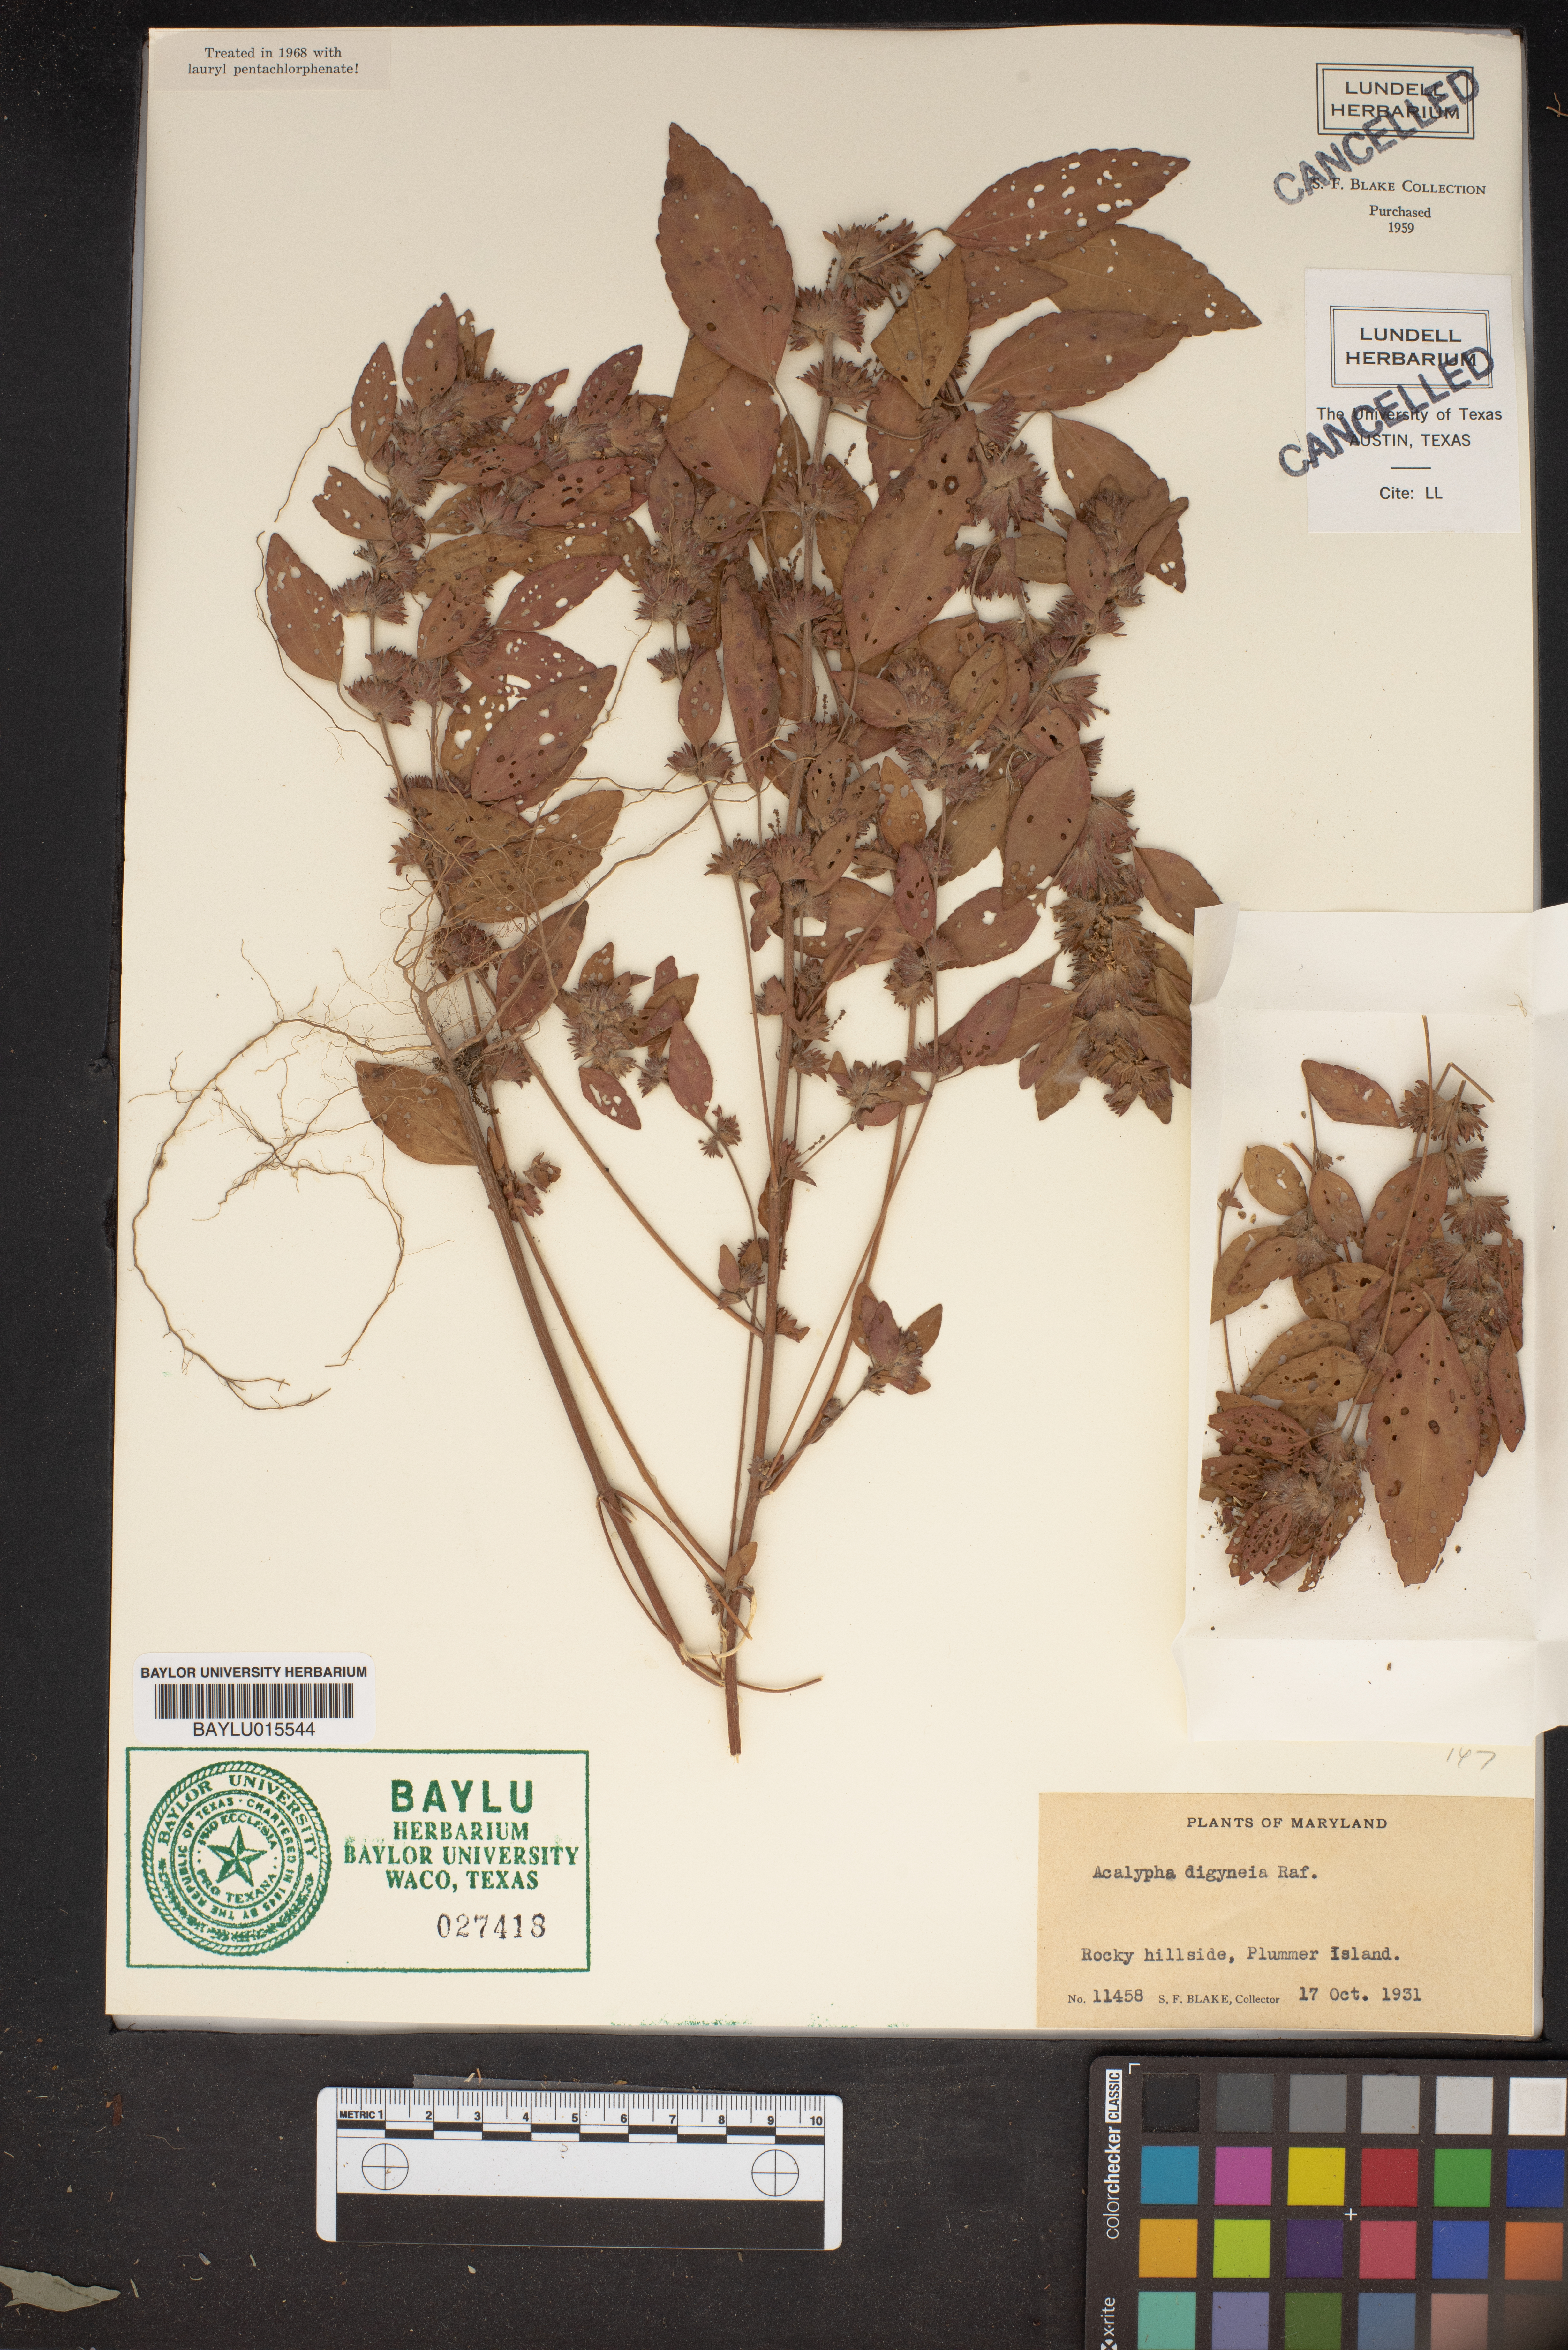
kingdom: Plantae
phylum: Tracheophyta
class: Magnoliopsida
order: Malpighiales
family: Euphorbiaceae
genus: Acalypha
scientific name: Acalypha virginica
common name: Virginia copperleaf
